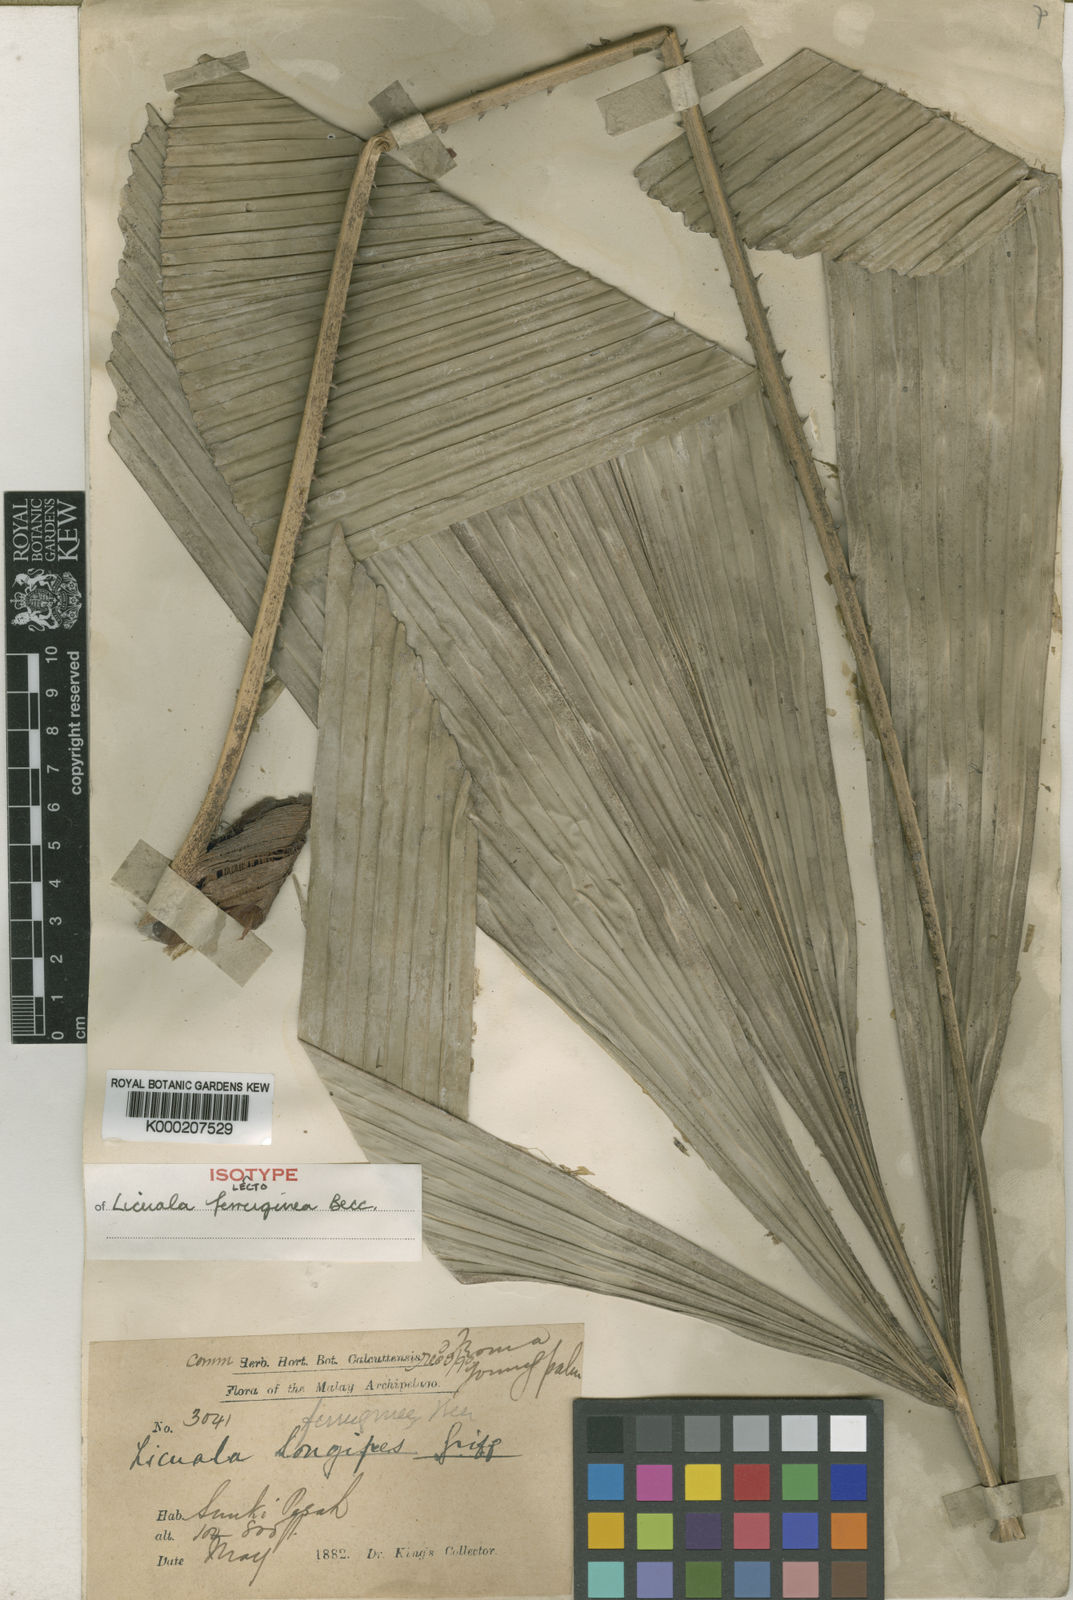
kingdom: Plantae
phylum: Tracheophyta
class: Liliopsida
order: Arecales
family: Arecaceae
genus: Licuala
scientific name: Licuala ferruginea
